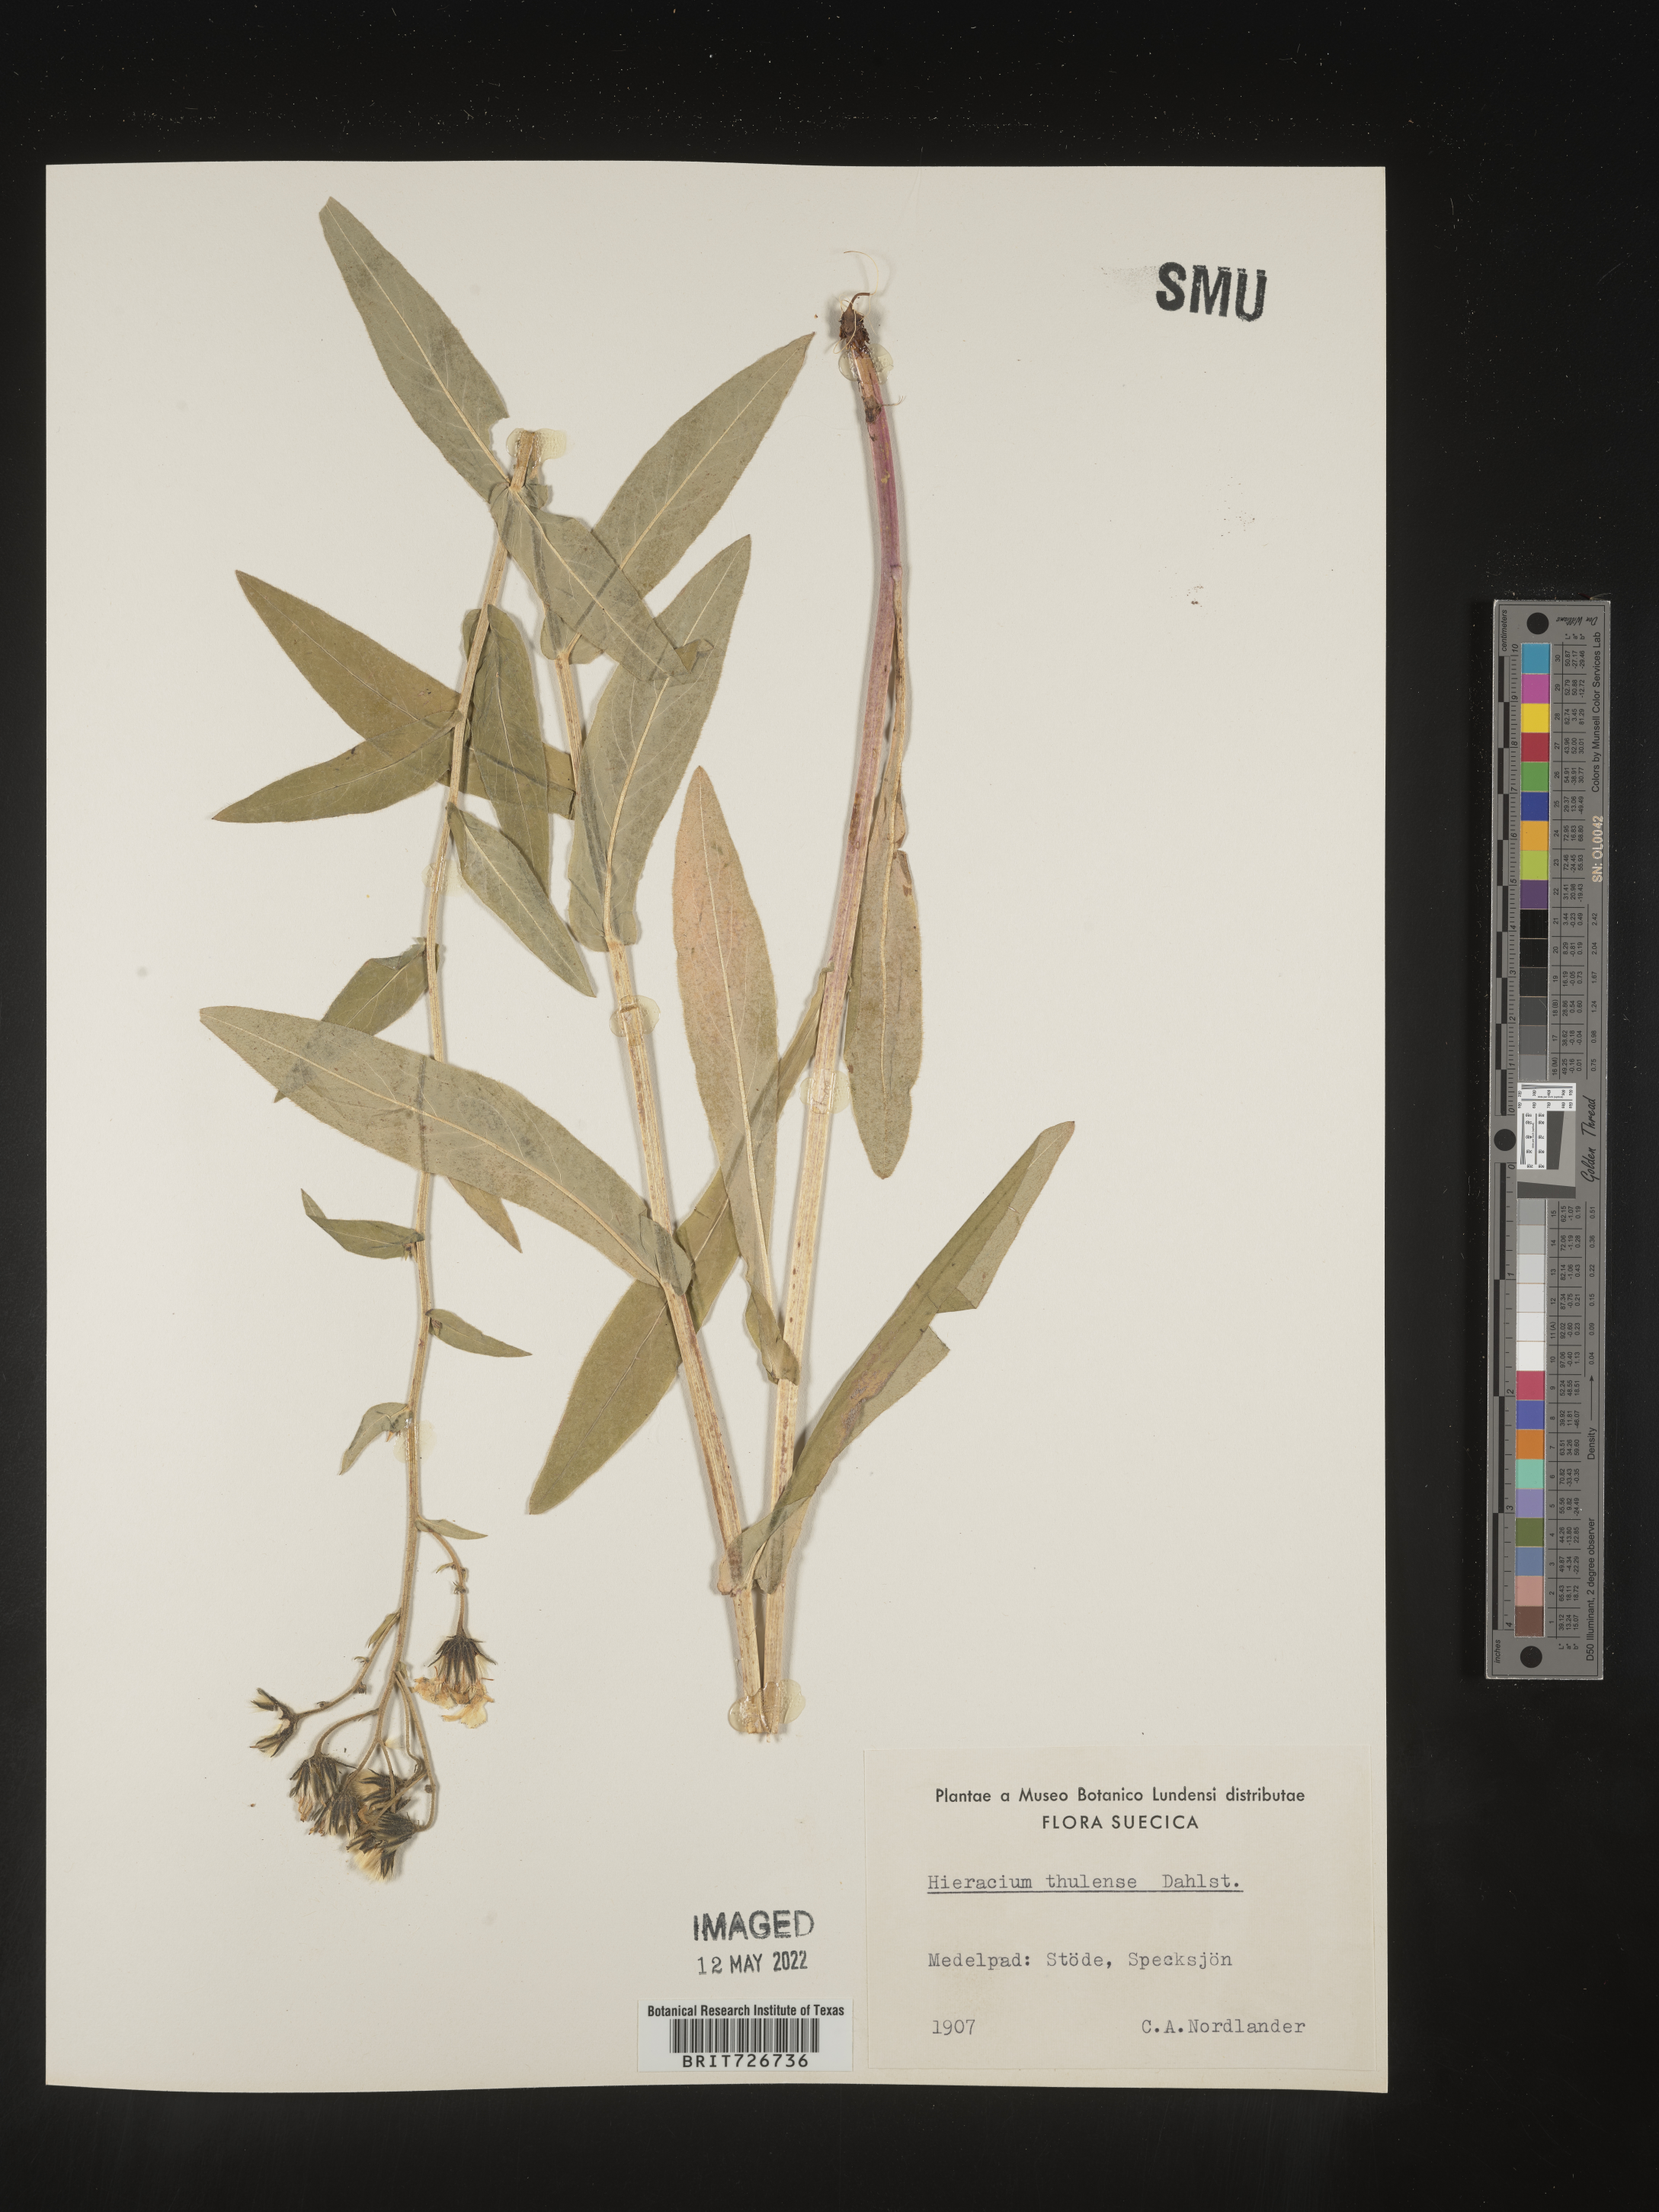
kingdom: Plantae
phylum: Tracheophyta
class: Magnoliopsida
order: Asterales
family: Asteraceae
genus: Hieracium
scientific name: Hieracium
